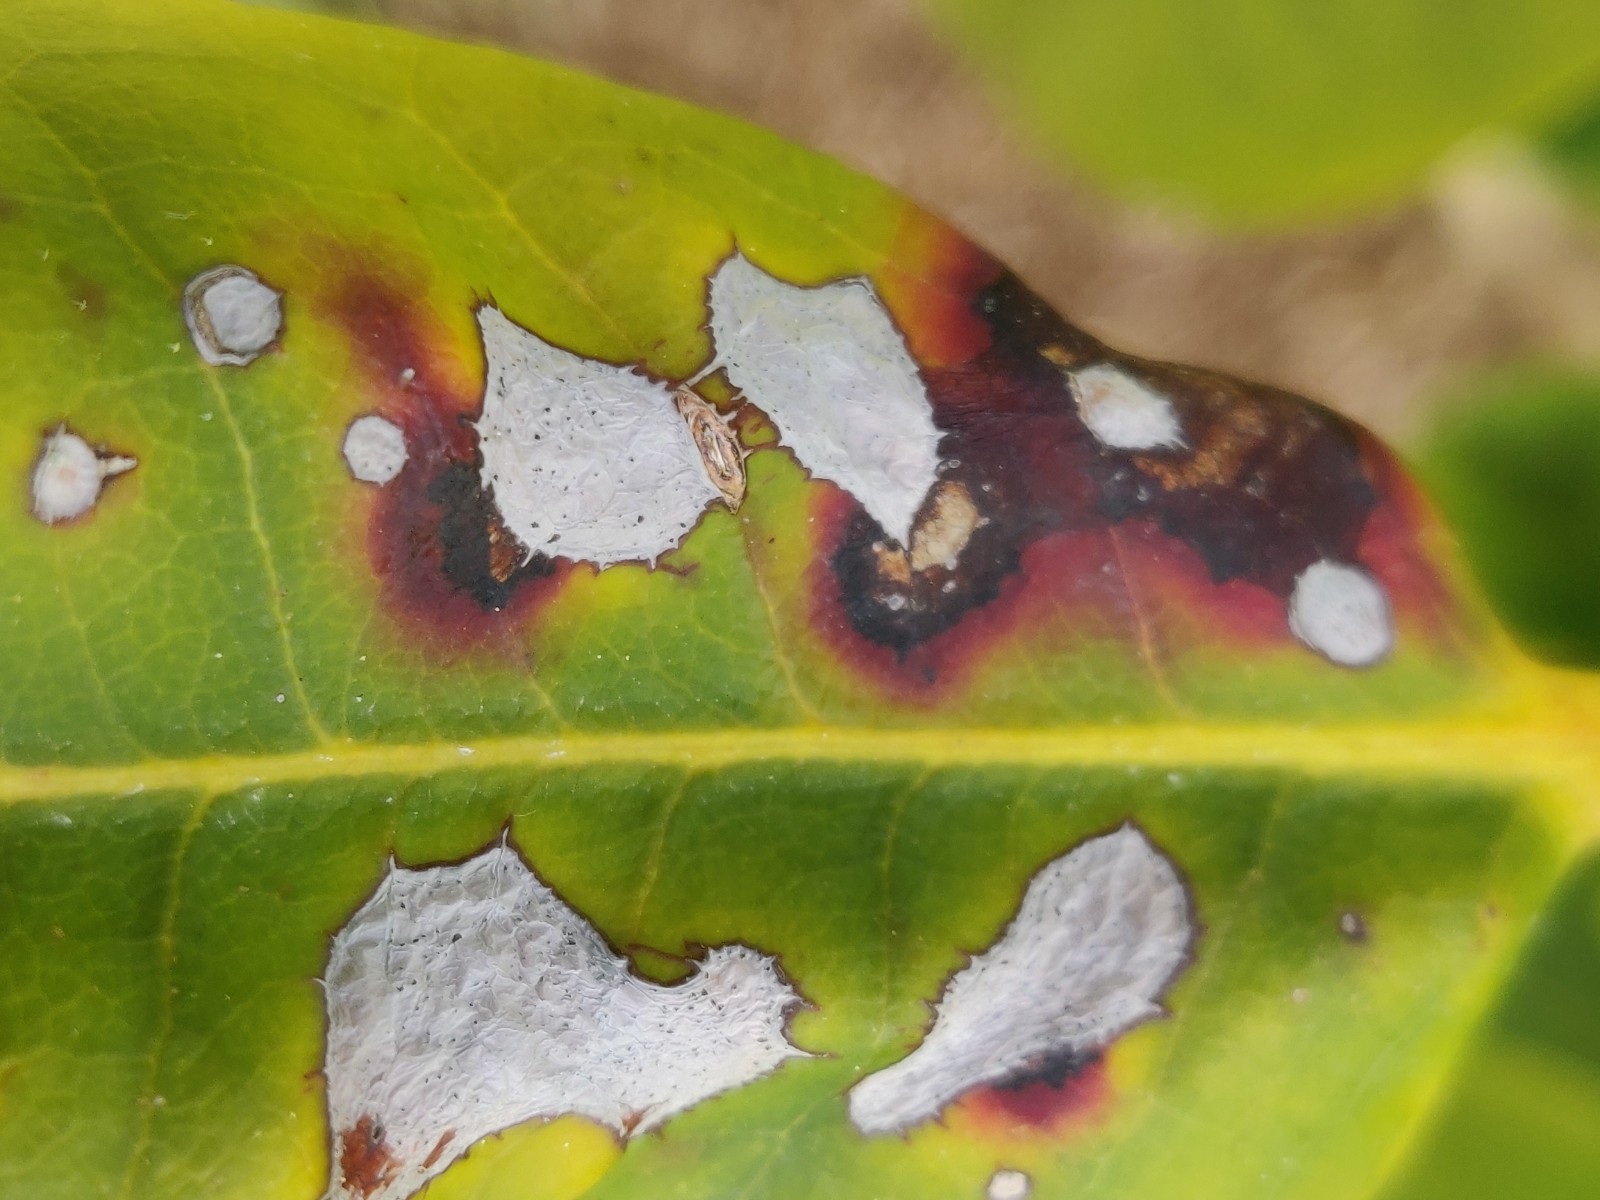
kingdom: Fungi
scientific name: Fungi
